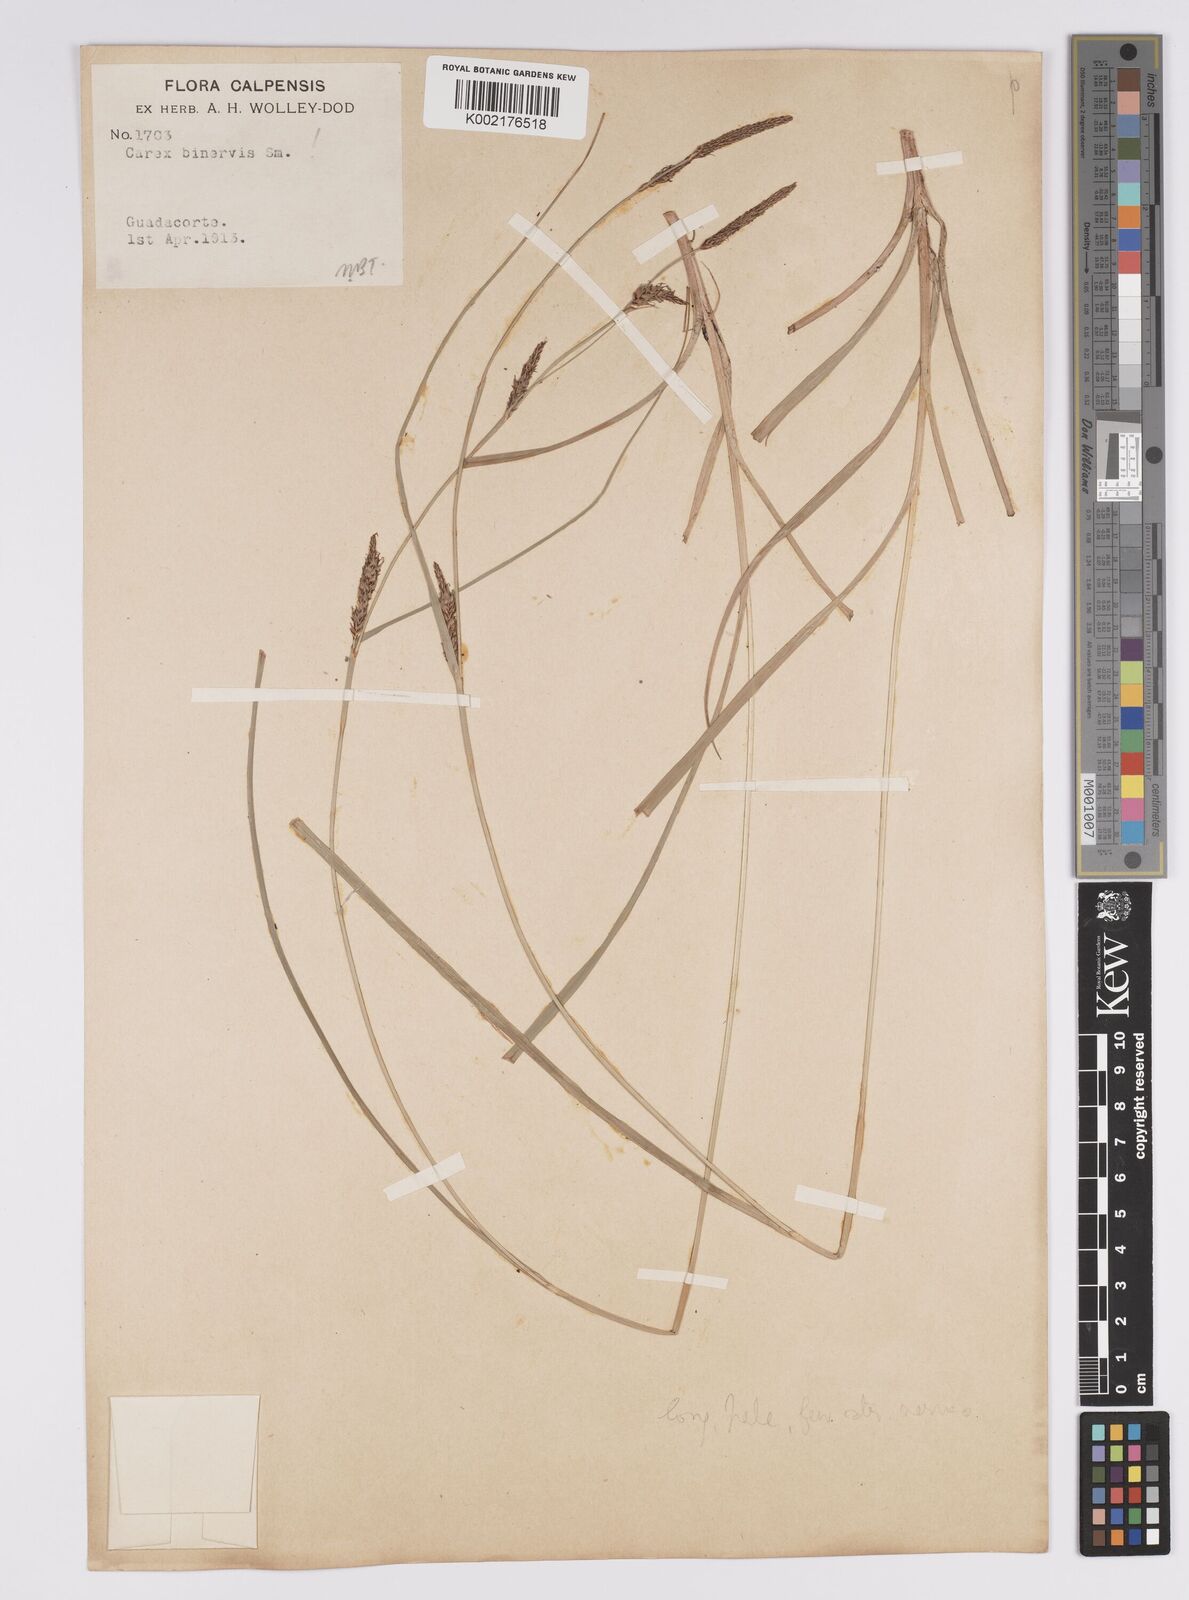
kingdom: Plantae
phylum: Tracheophyta
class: Liliopsida
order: Poales
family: Cyperaceae
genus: Carex
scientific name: Carex distans
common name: Distant sedge
